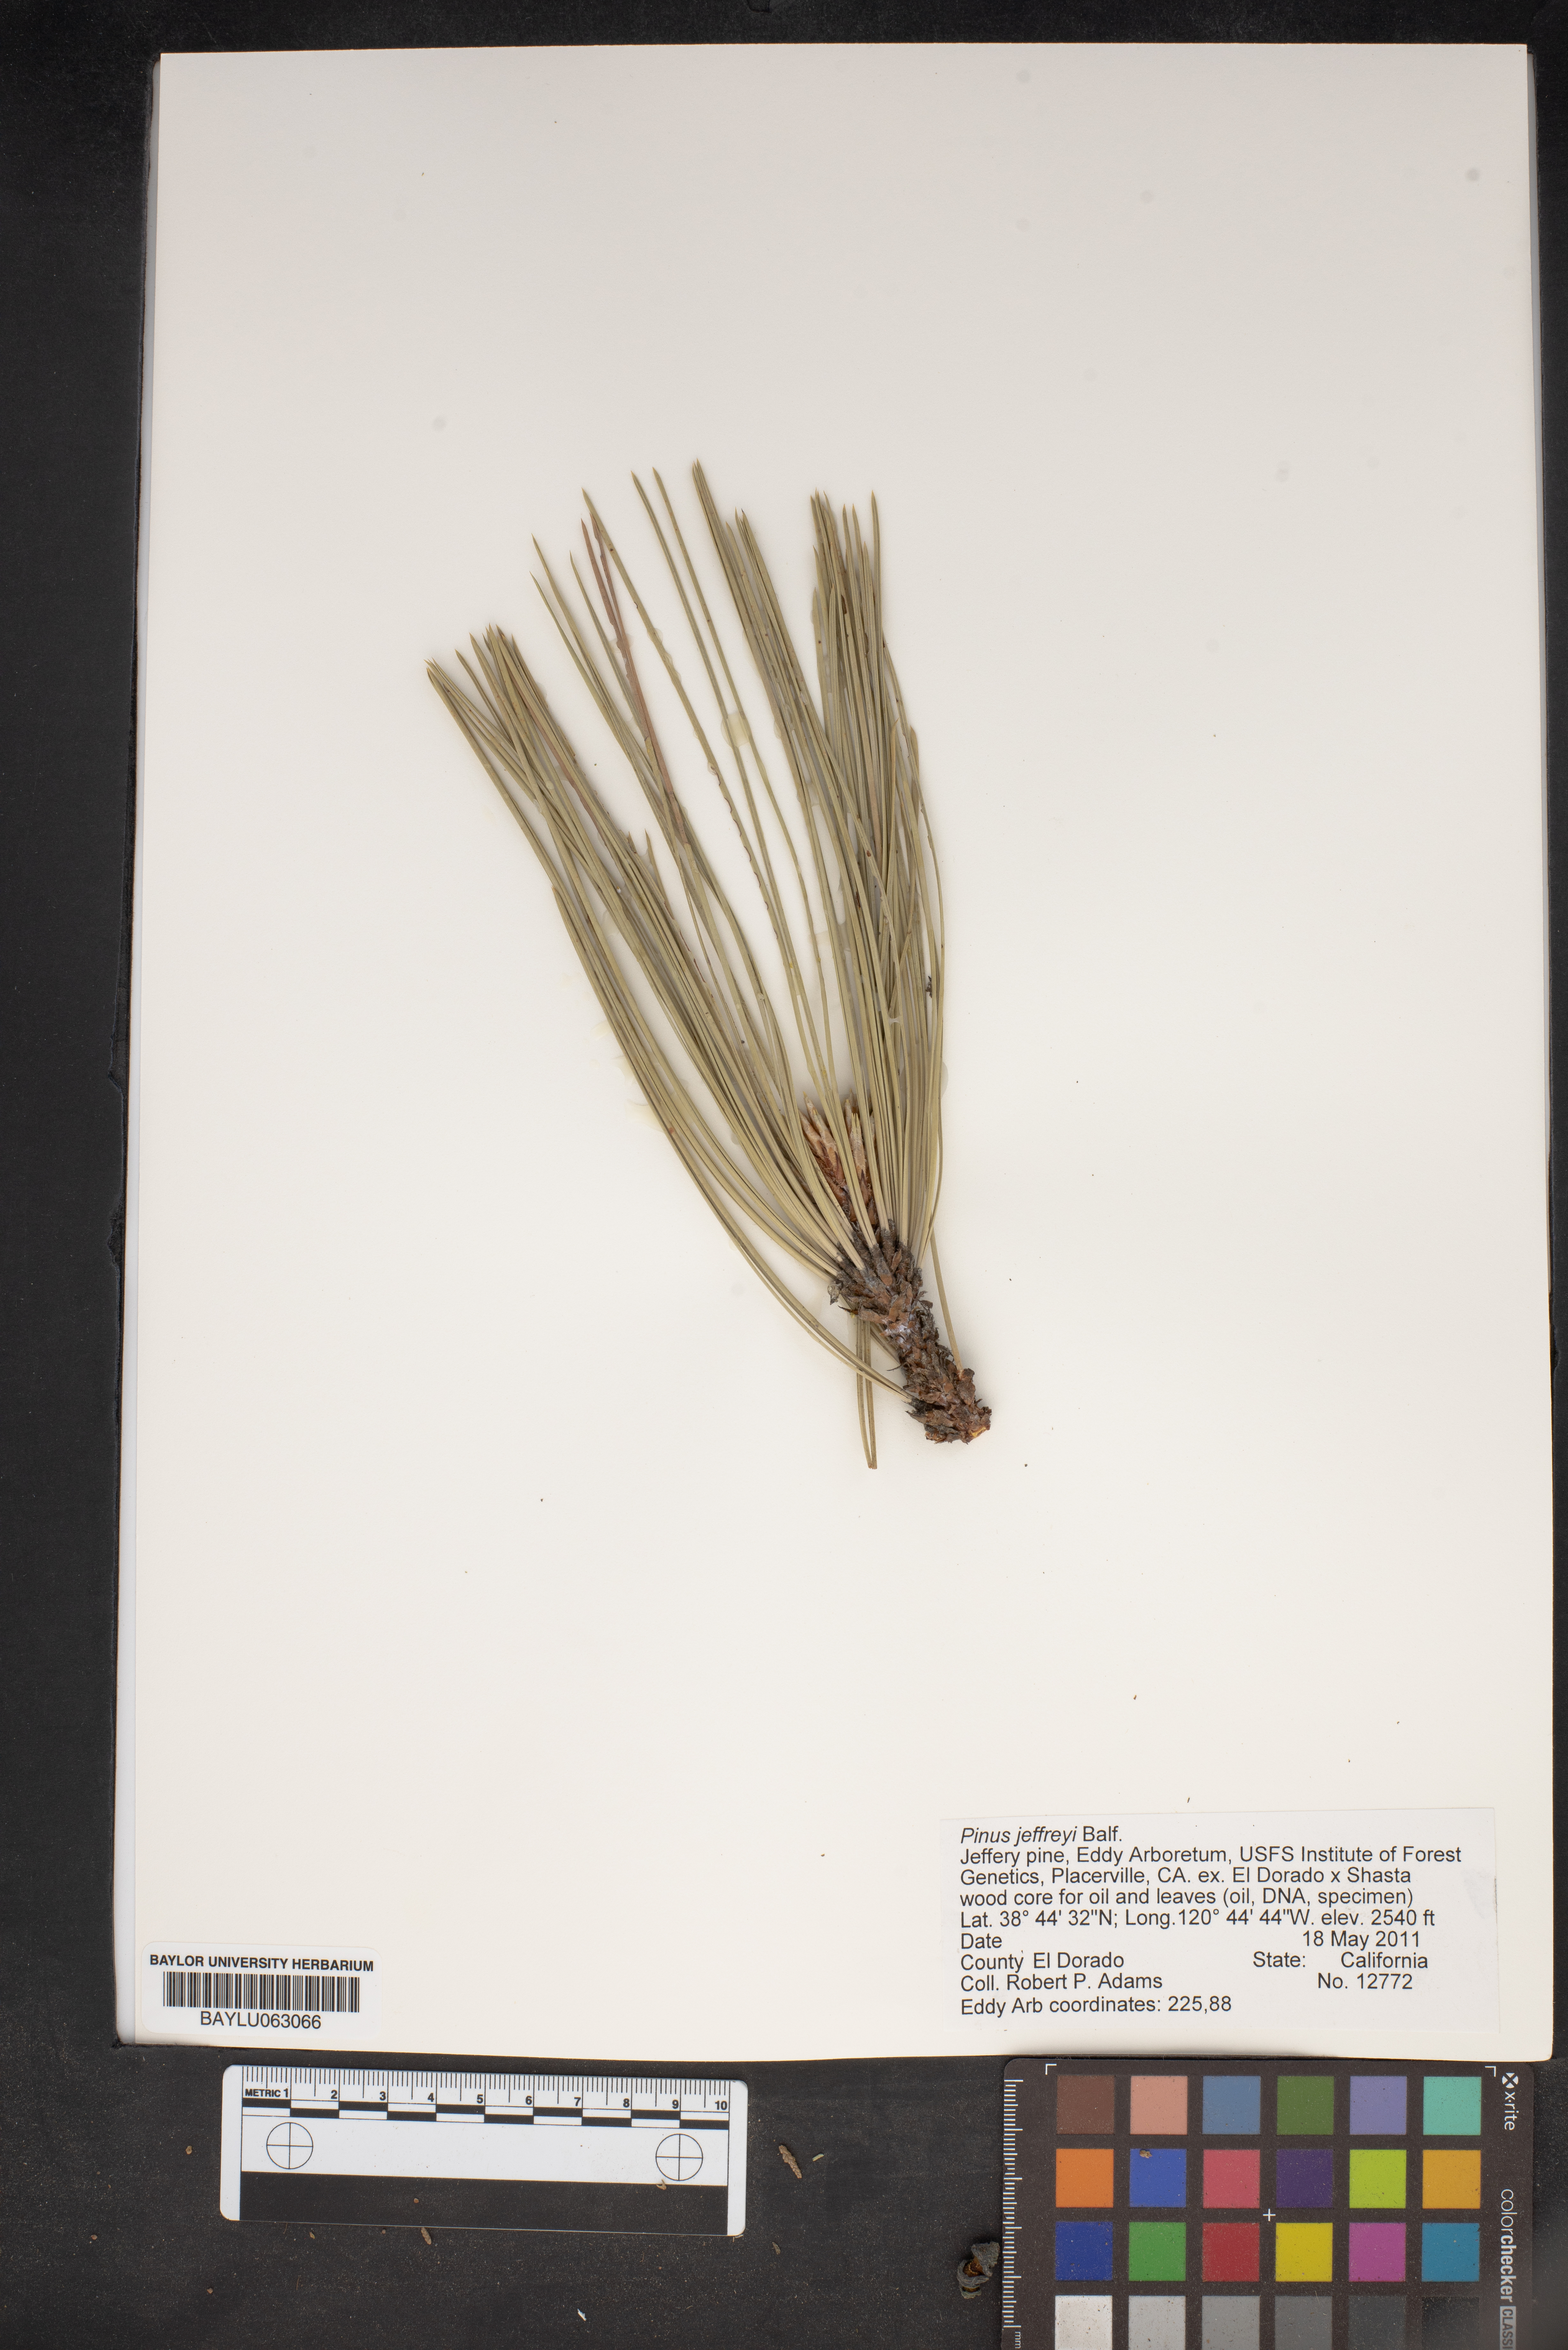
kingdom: Plantae
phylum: Tracheophyta
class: Pinopsida
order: Pinales
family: Pinaceae
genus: Pinus
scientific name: Pinus jeffreyi
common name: Jeffrey pine
